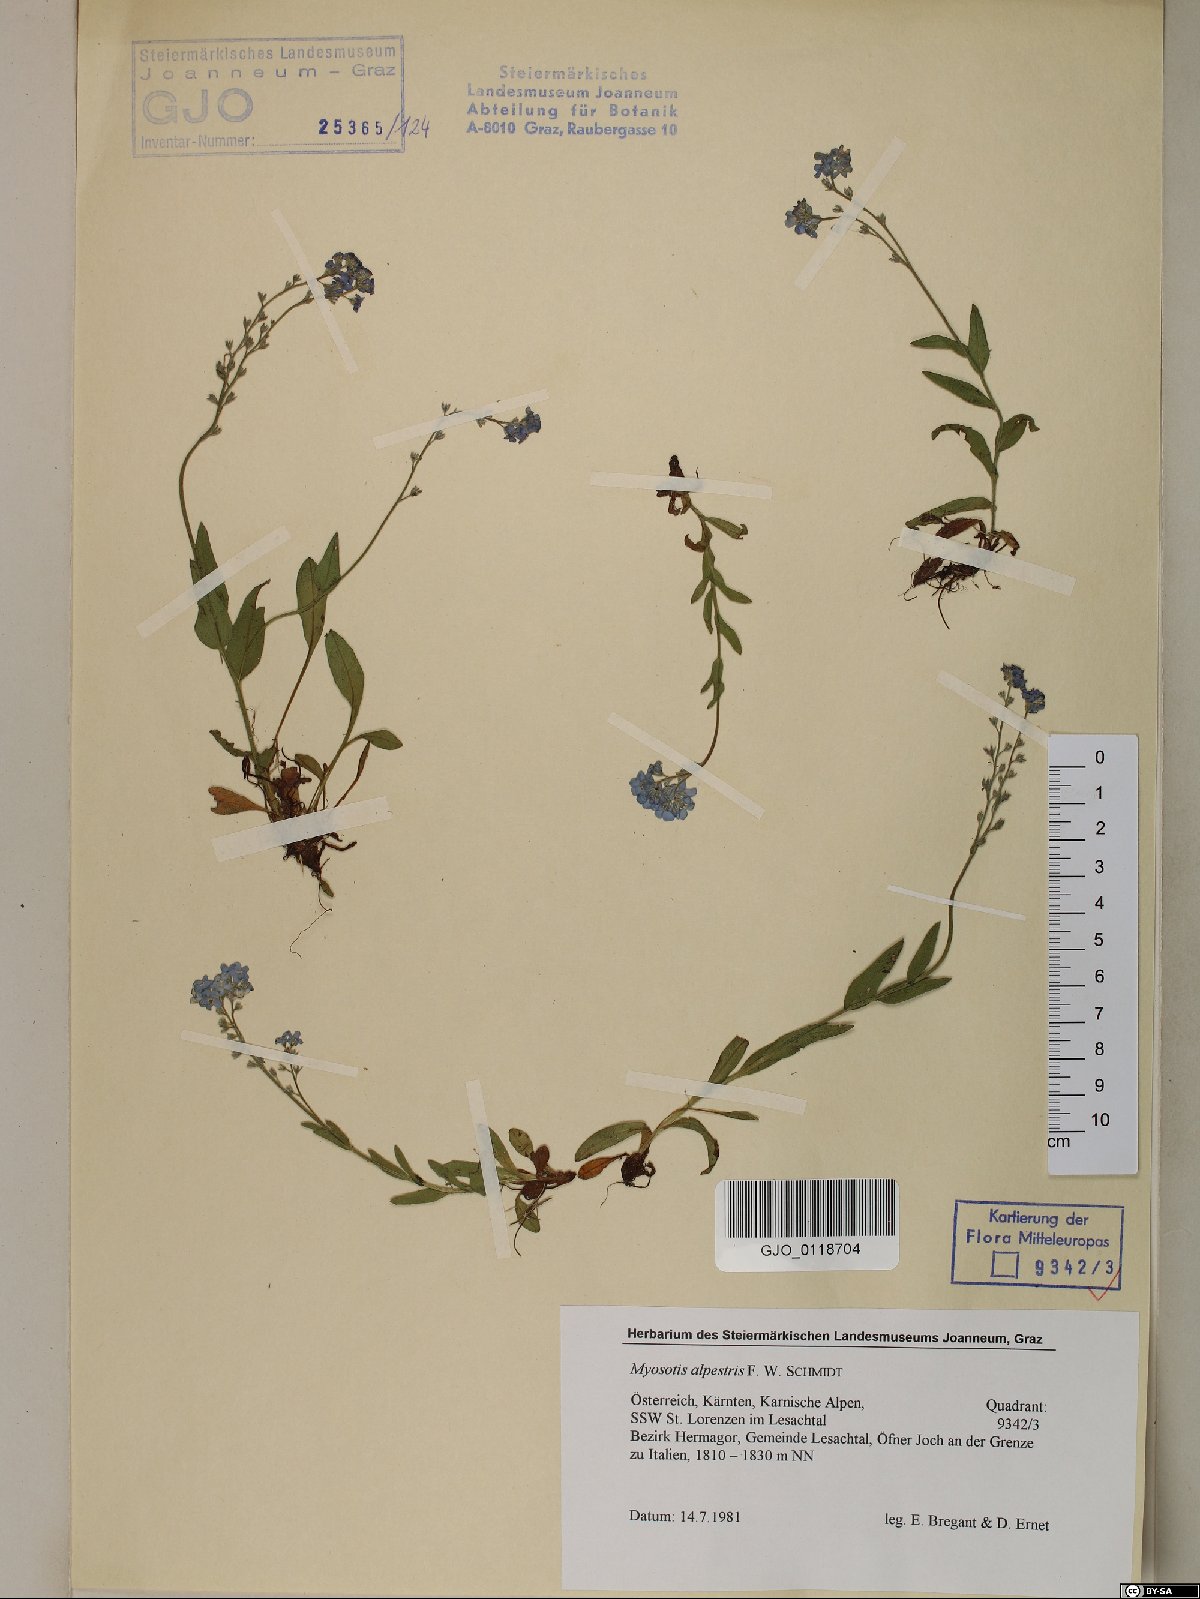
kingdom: Plantae
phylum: Tracheophyta
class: Magnoliopsida
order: Boraginales
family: Boraginaceae
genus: Myosotis
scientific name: Myosotis alpestris
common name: Alpine forget-me-not
